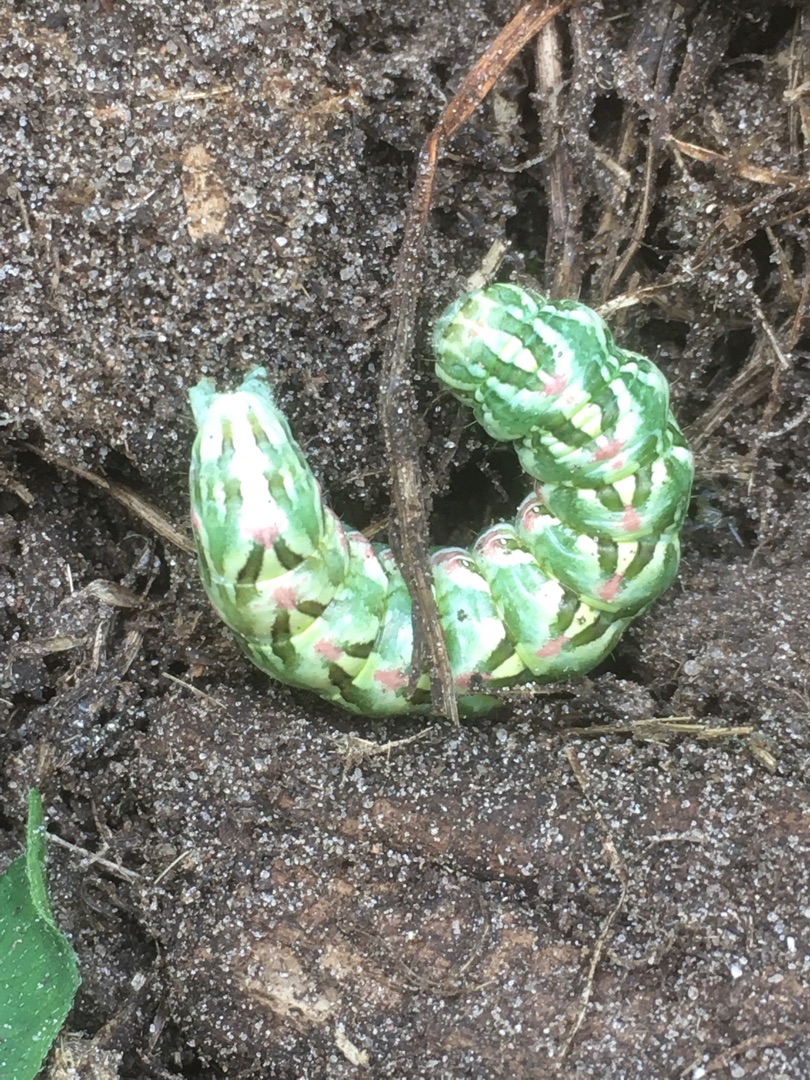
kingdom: Animalia
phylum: Arthropoda
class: Insecta
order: Lepidoptera
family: Noctuidae
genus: Cucullia
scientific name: Cucullia chamomillae
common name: Kamille-hætteugle
